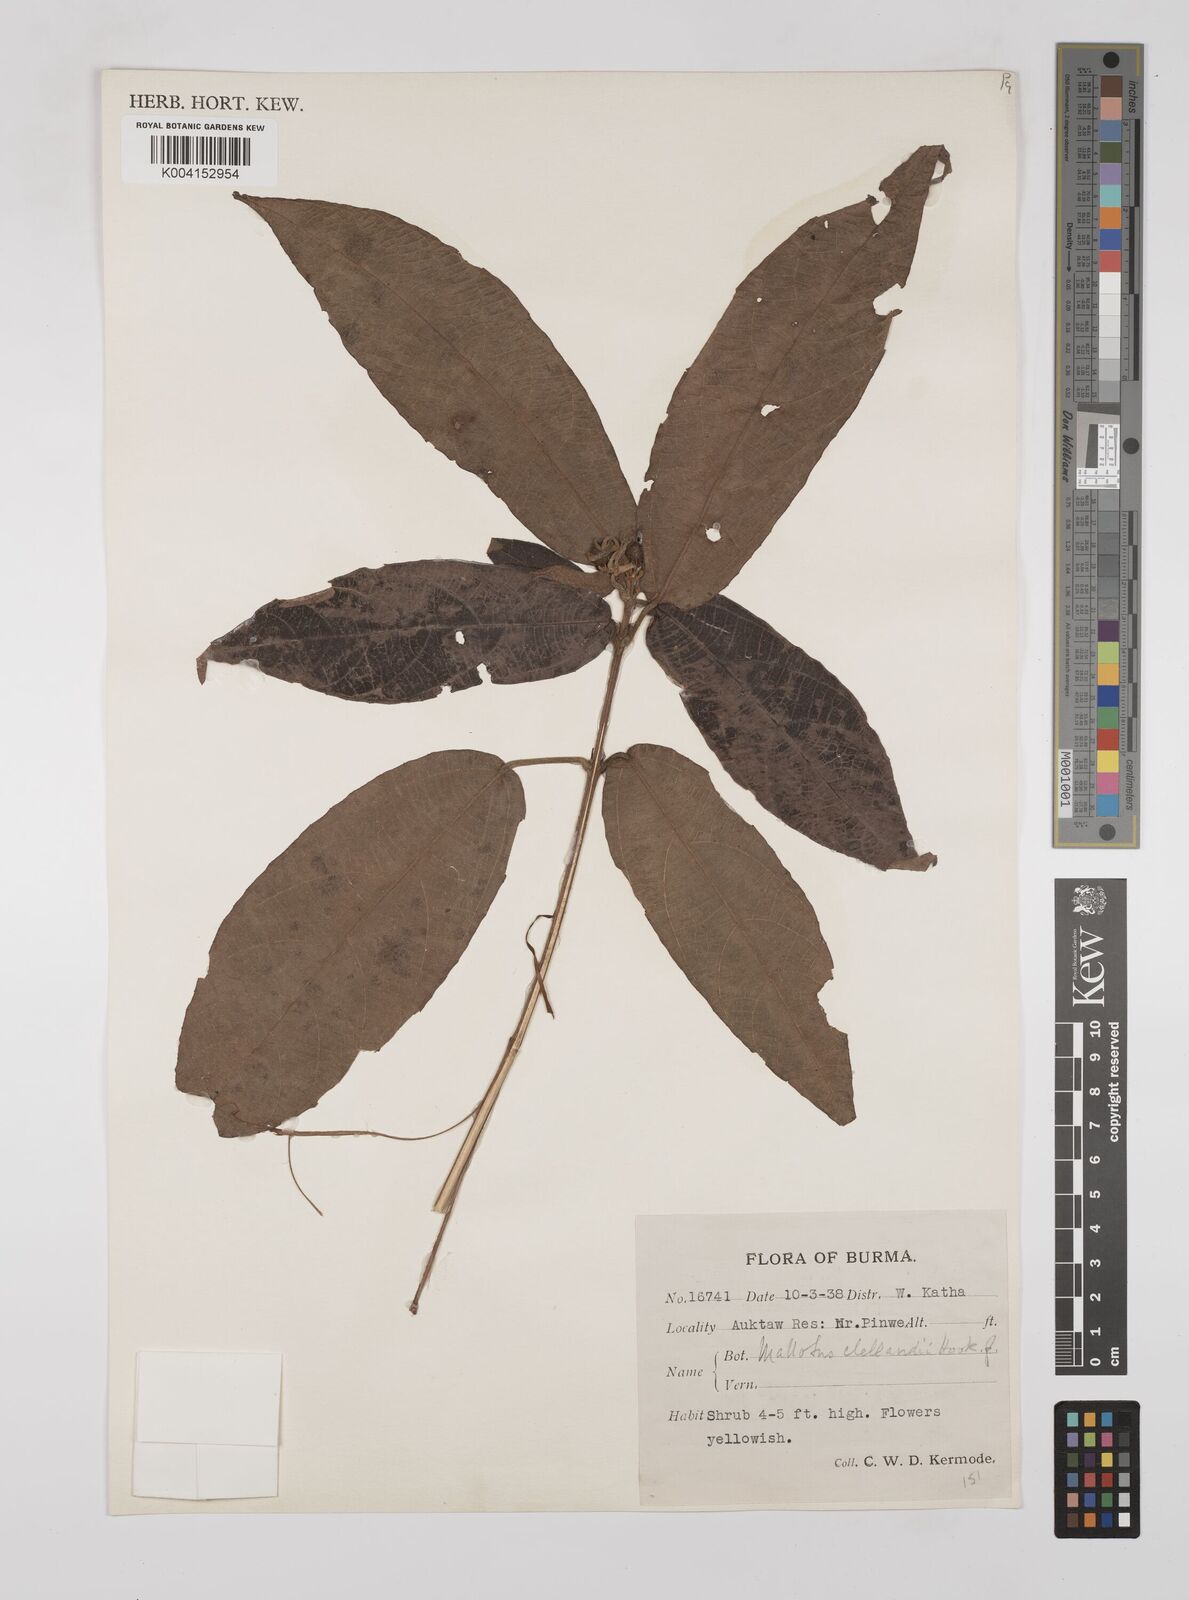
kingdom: Plantae
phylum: Tracheophyta
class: Magnoliopsida
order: Malpighiales
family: Euphorbiaceae
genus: Mallotus
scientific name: Mallotus glabriusculus
